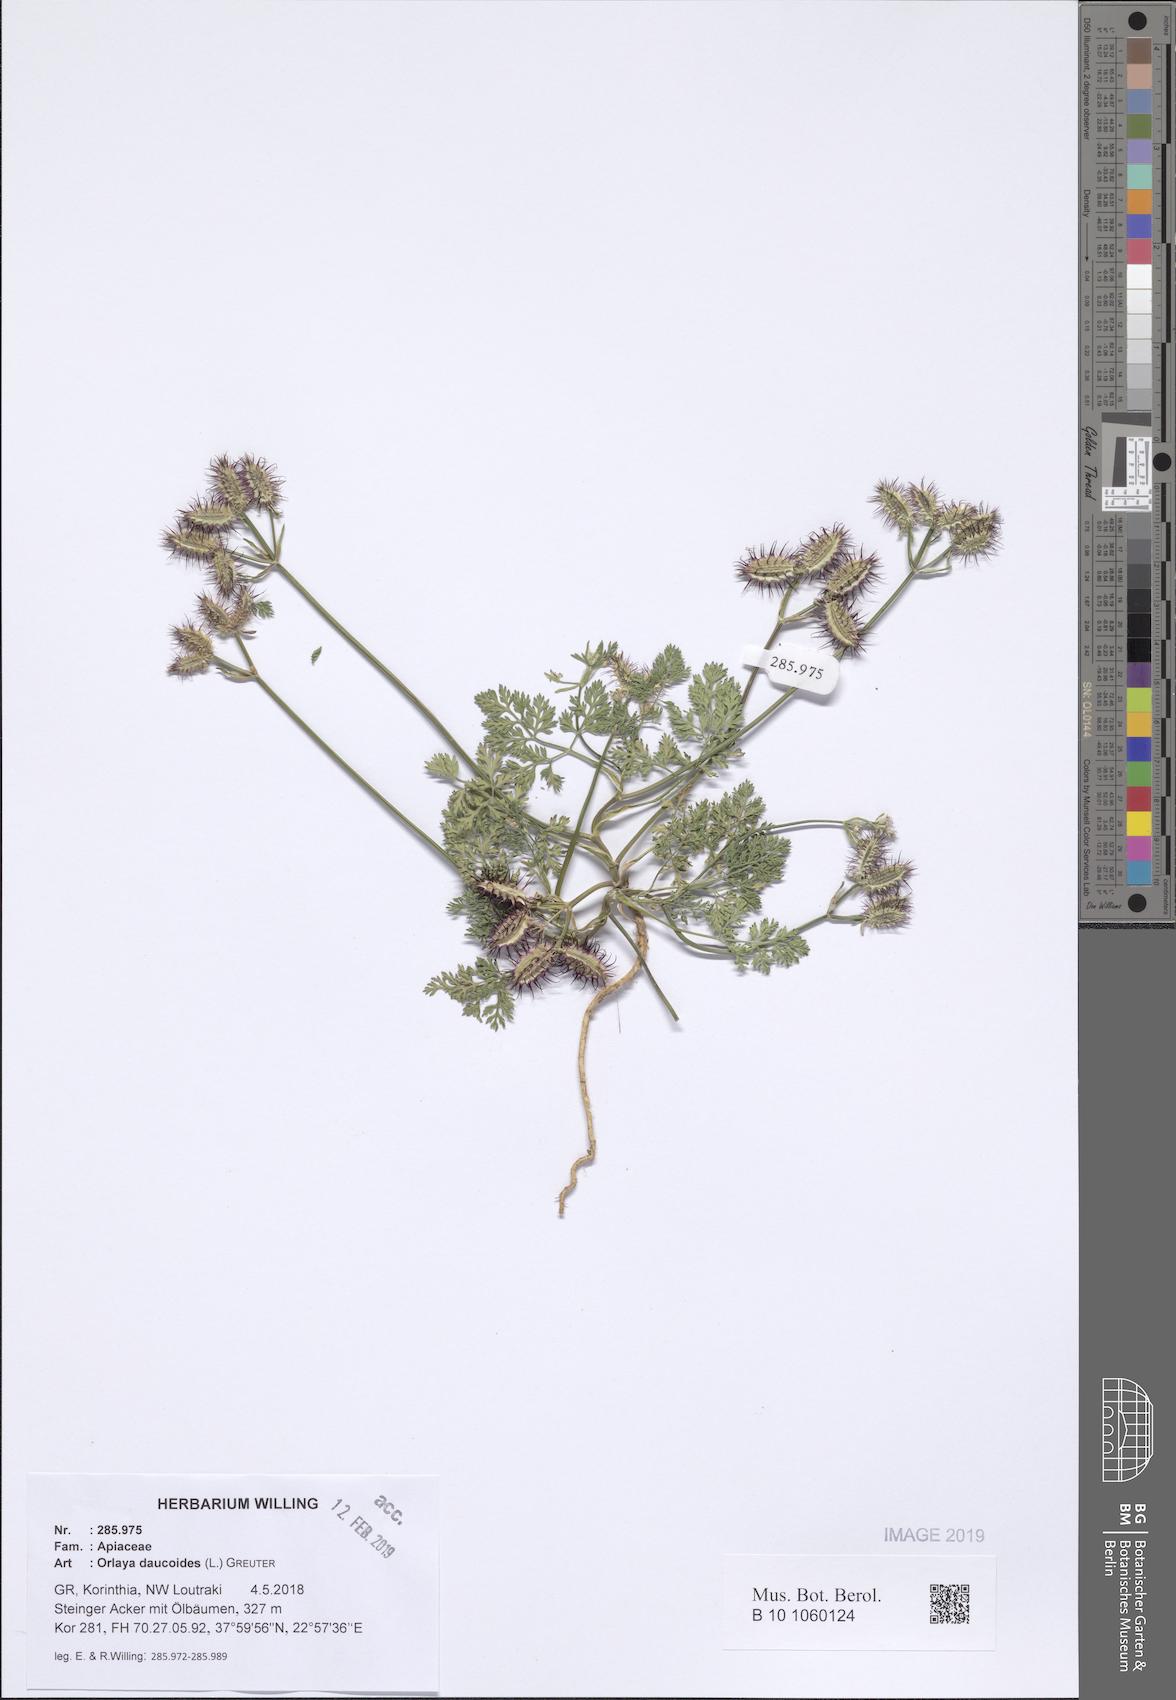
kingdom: Plantae
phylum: Tracheophyta
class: Magnoliopsida
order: Apiales
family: Apiaceae
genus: Orlaya
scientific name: Orlaya daucoides
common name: Flat-fruit orlaya
